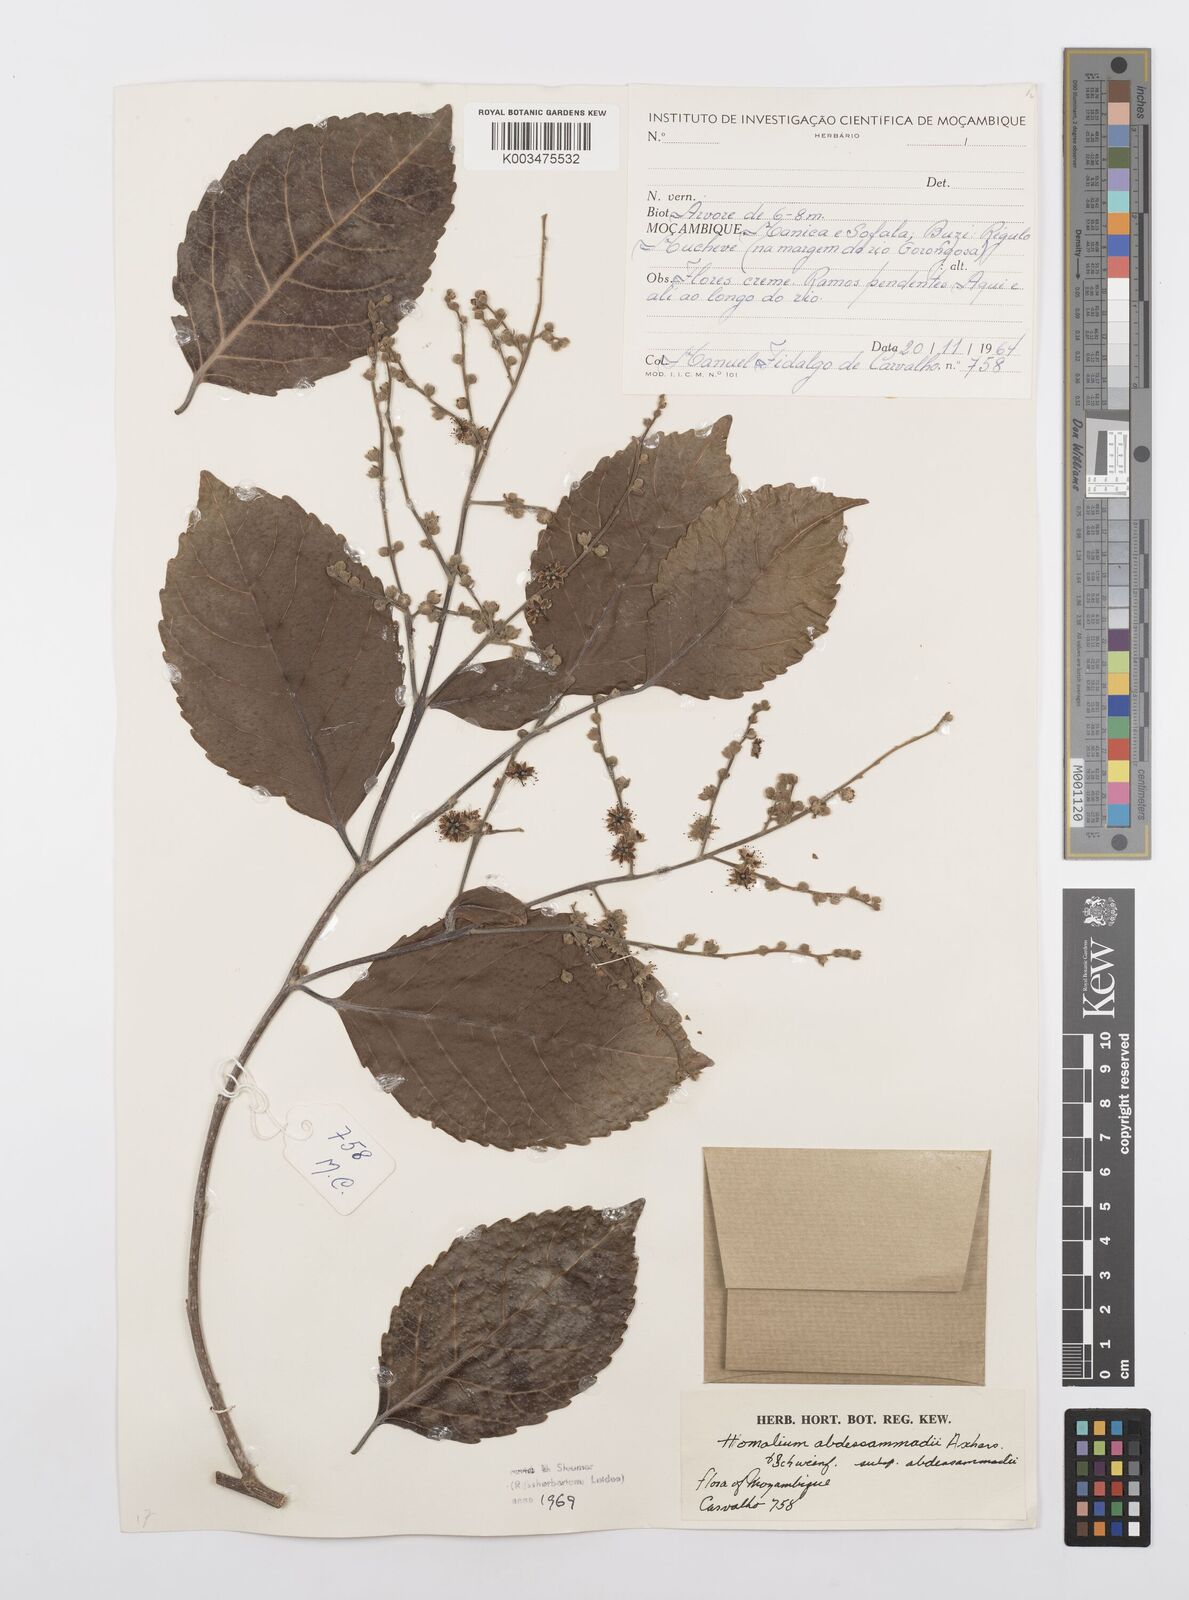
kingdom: Plantae
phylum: Tracheophyta
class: Magnoliopsida
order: Malpighiales
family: Salicaceae
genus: Homalium
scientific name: Homalium abdessammadii
